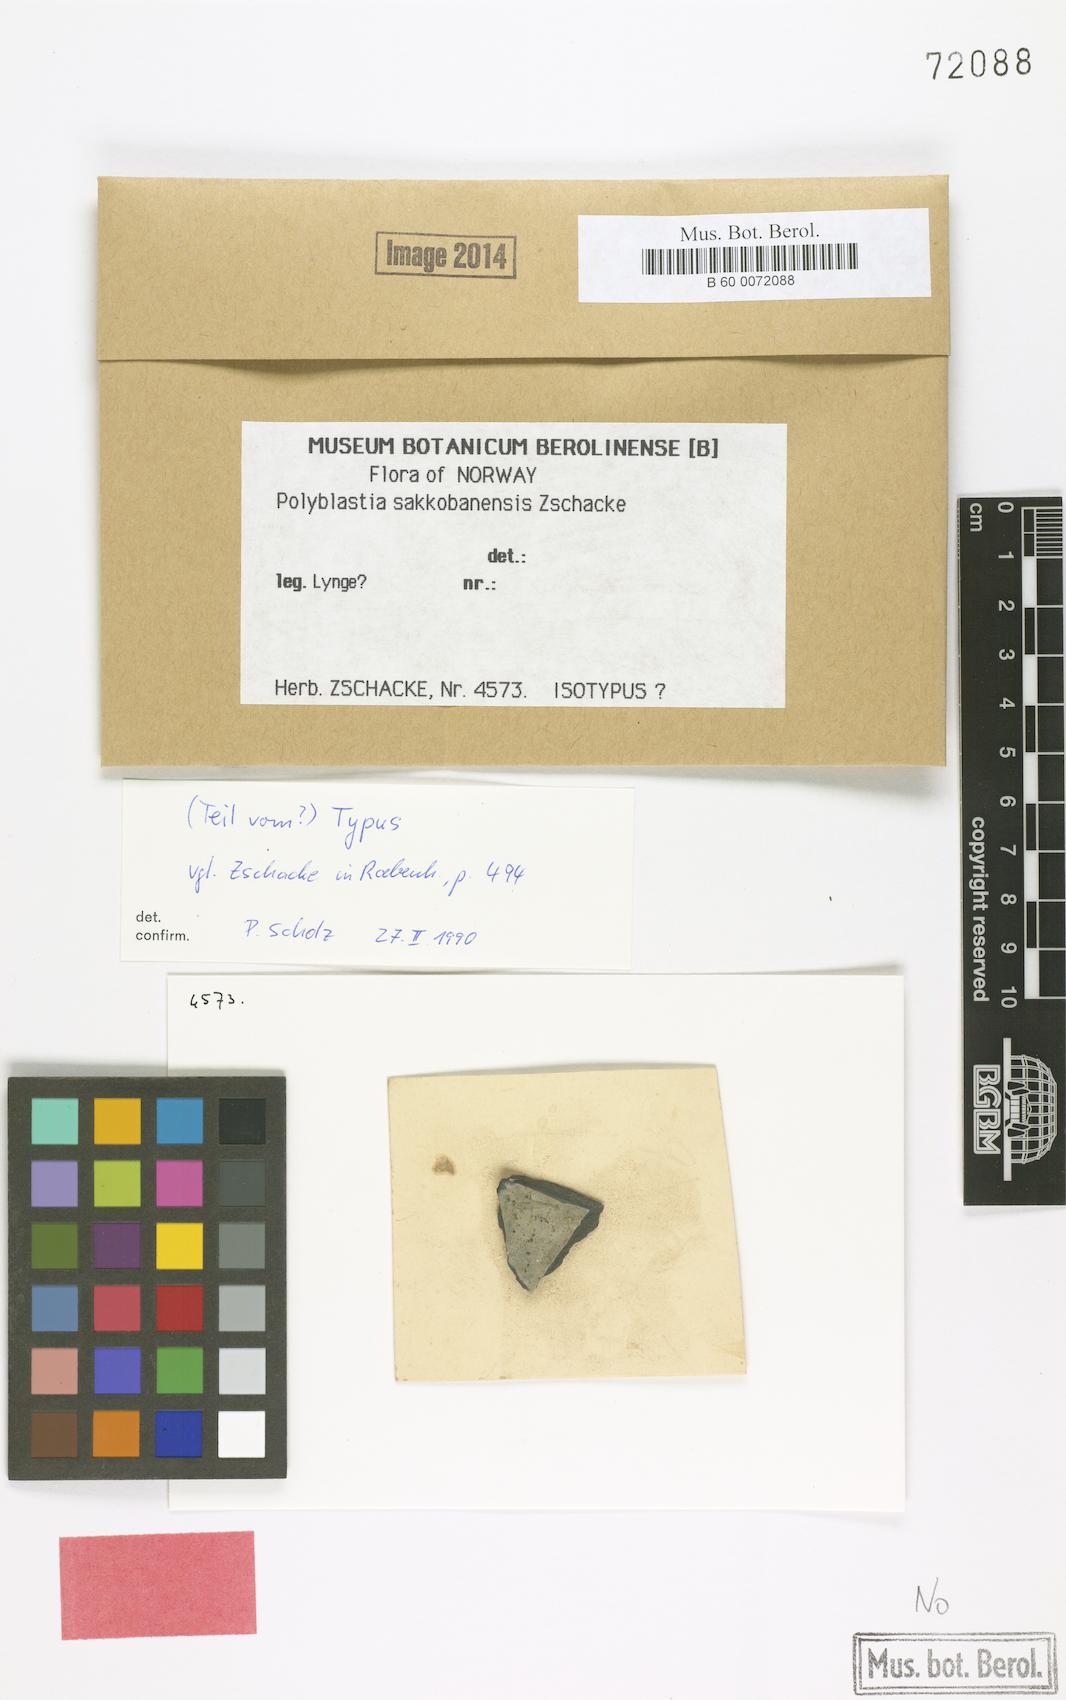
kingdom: Fungi
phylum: Ascomycota
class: Eurotiomycetes
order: Verrucariales
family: Verrucariaceae
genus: Polyblastia
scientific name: Polyblastia sakkobanensis
